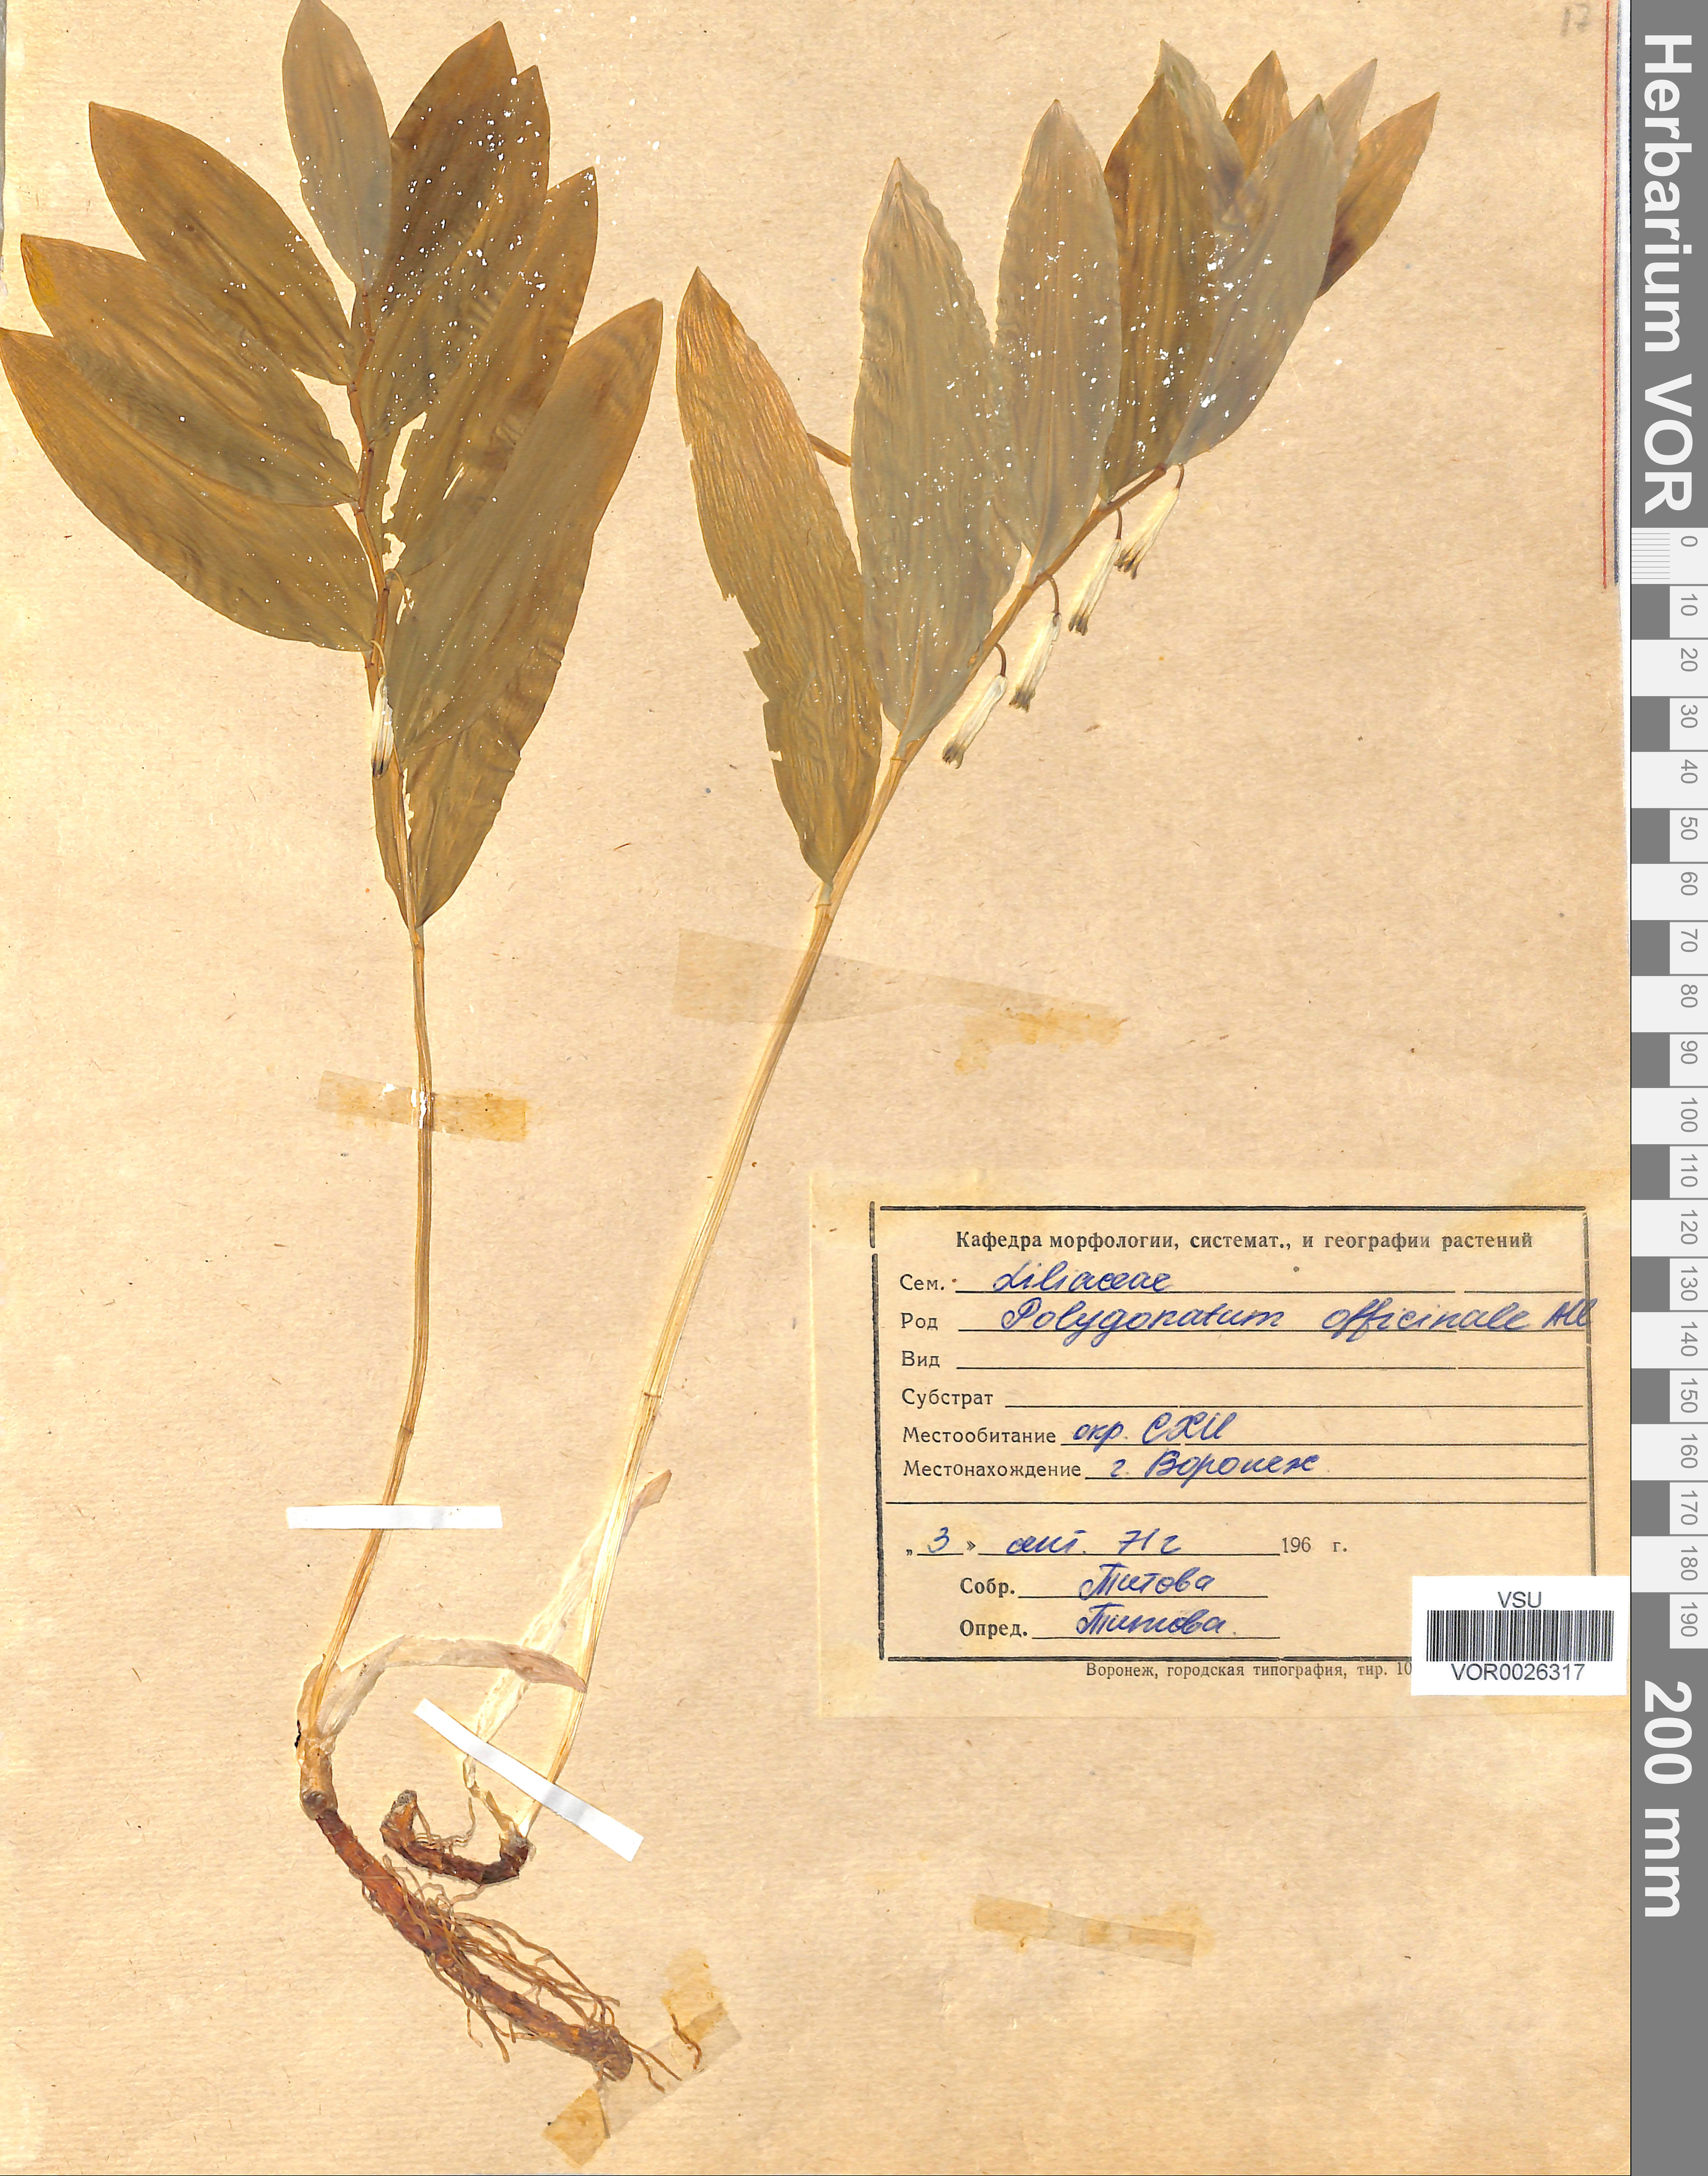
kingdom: Plantae
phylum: Tracheophyta
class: Liliopsida
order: Asparagales
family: Asparagaceae
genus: Polygonatum
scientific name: Polygonatum odoratum
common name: Angular solomon's-seal
